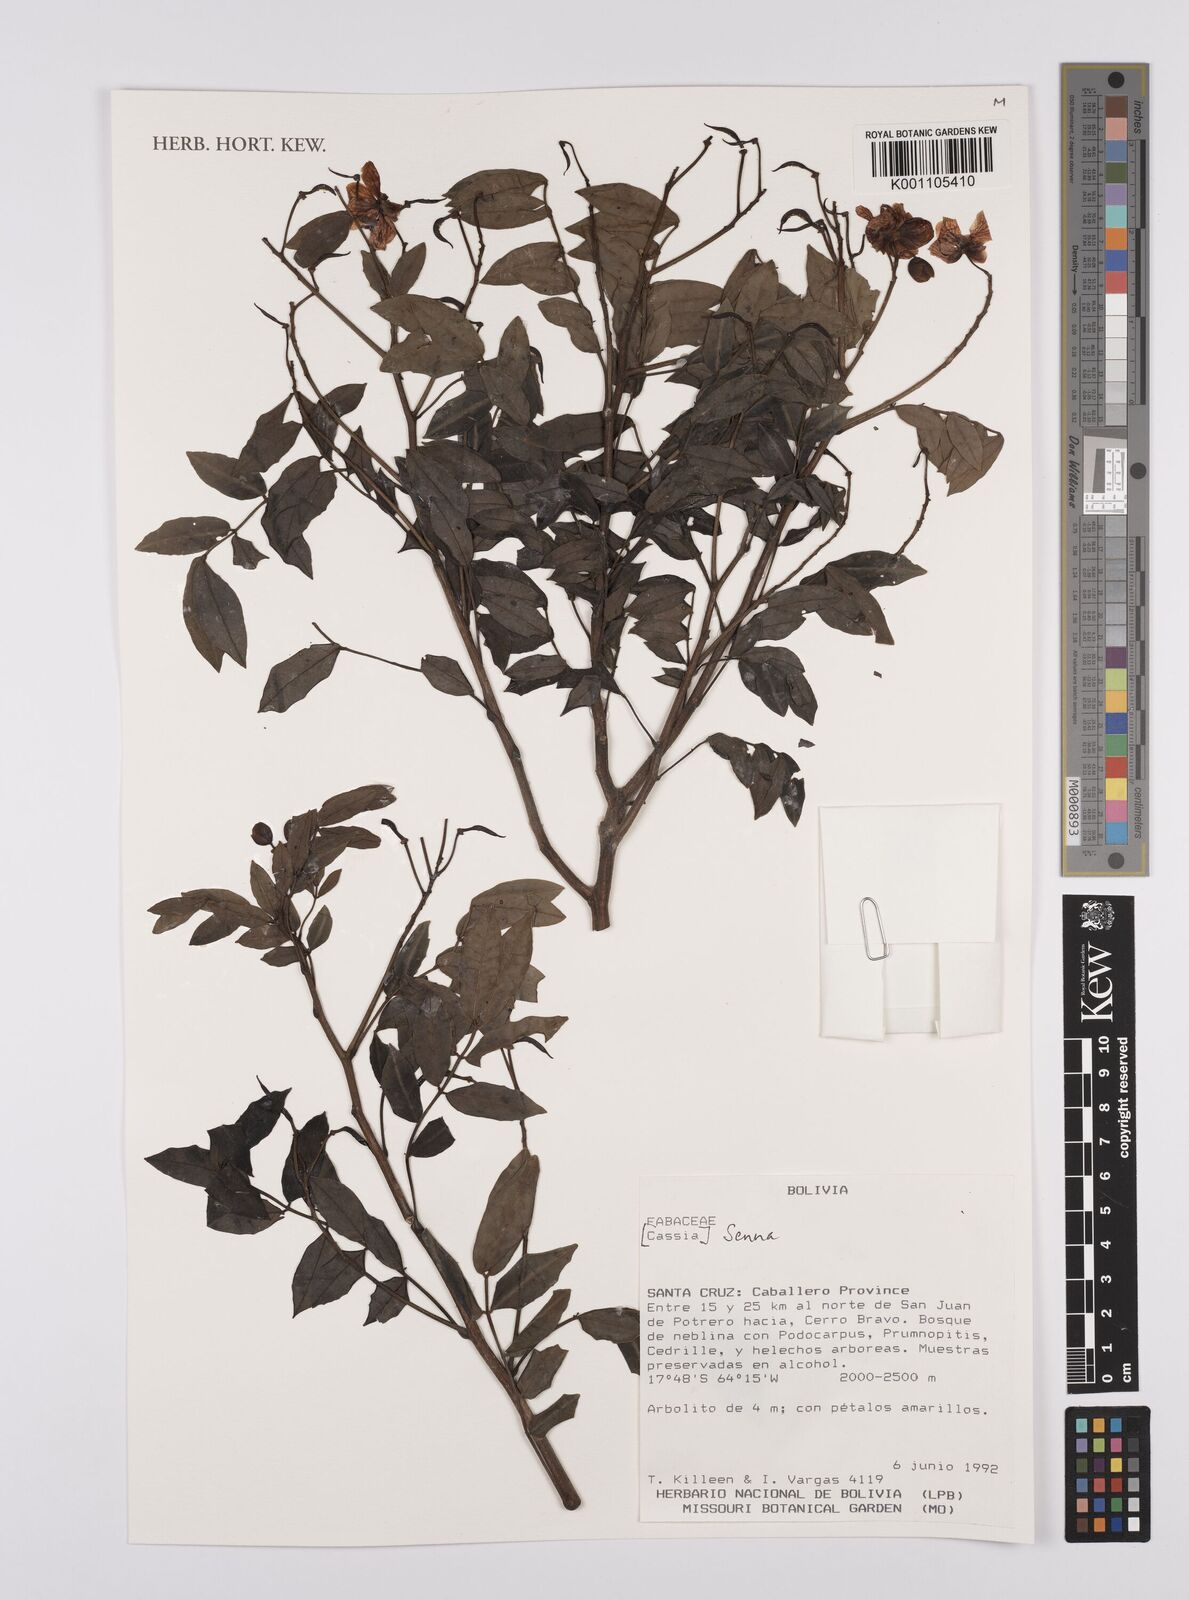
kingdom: Plantae
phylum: Tracheophyta
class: Magnoliopsida
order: Fabales
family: Fabaceae
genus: Senna
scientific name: Senna
